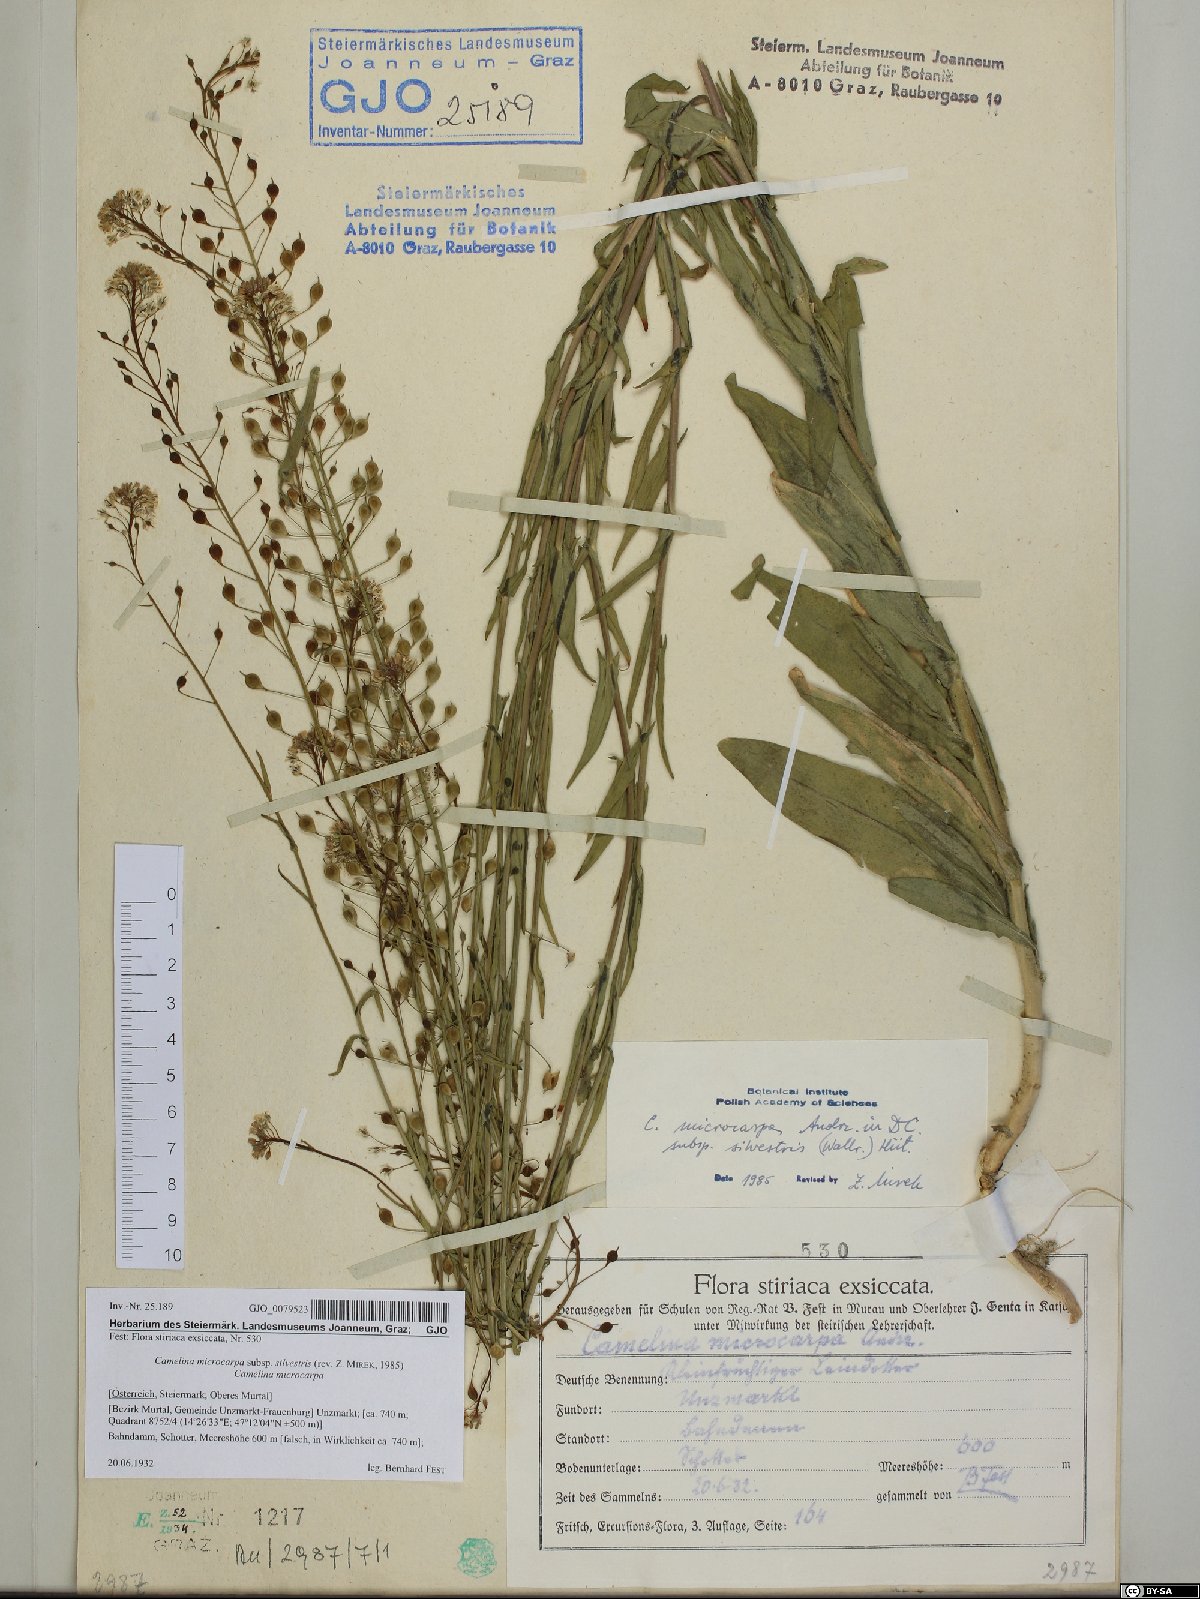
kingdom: Plantae
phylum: Tracheophyta
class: Magnoliopsida
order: Brassicales
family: Brassicaceae
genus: Camelina
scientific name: Camelina microcarpa
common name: Lesser gold-of-pleasure
